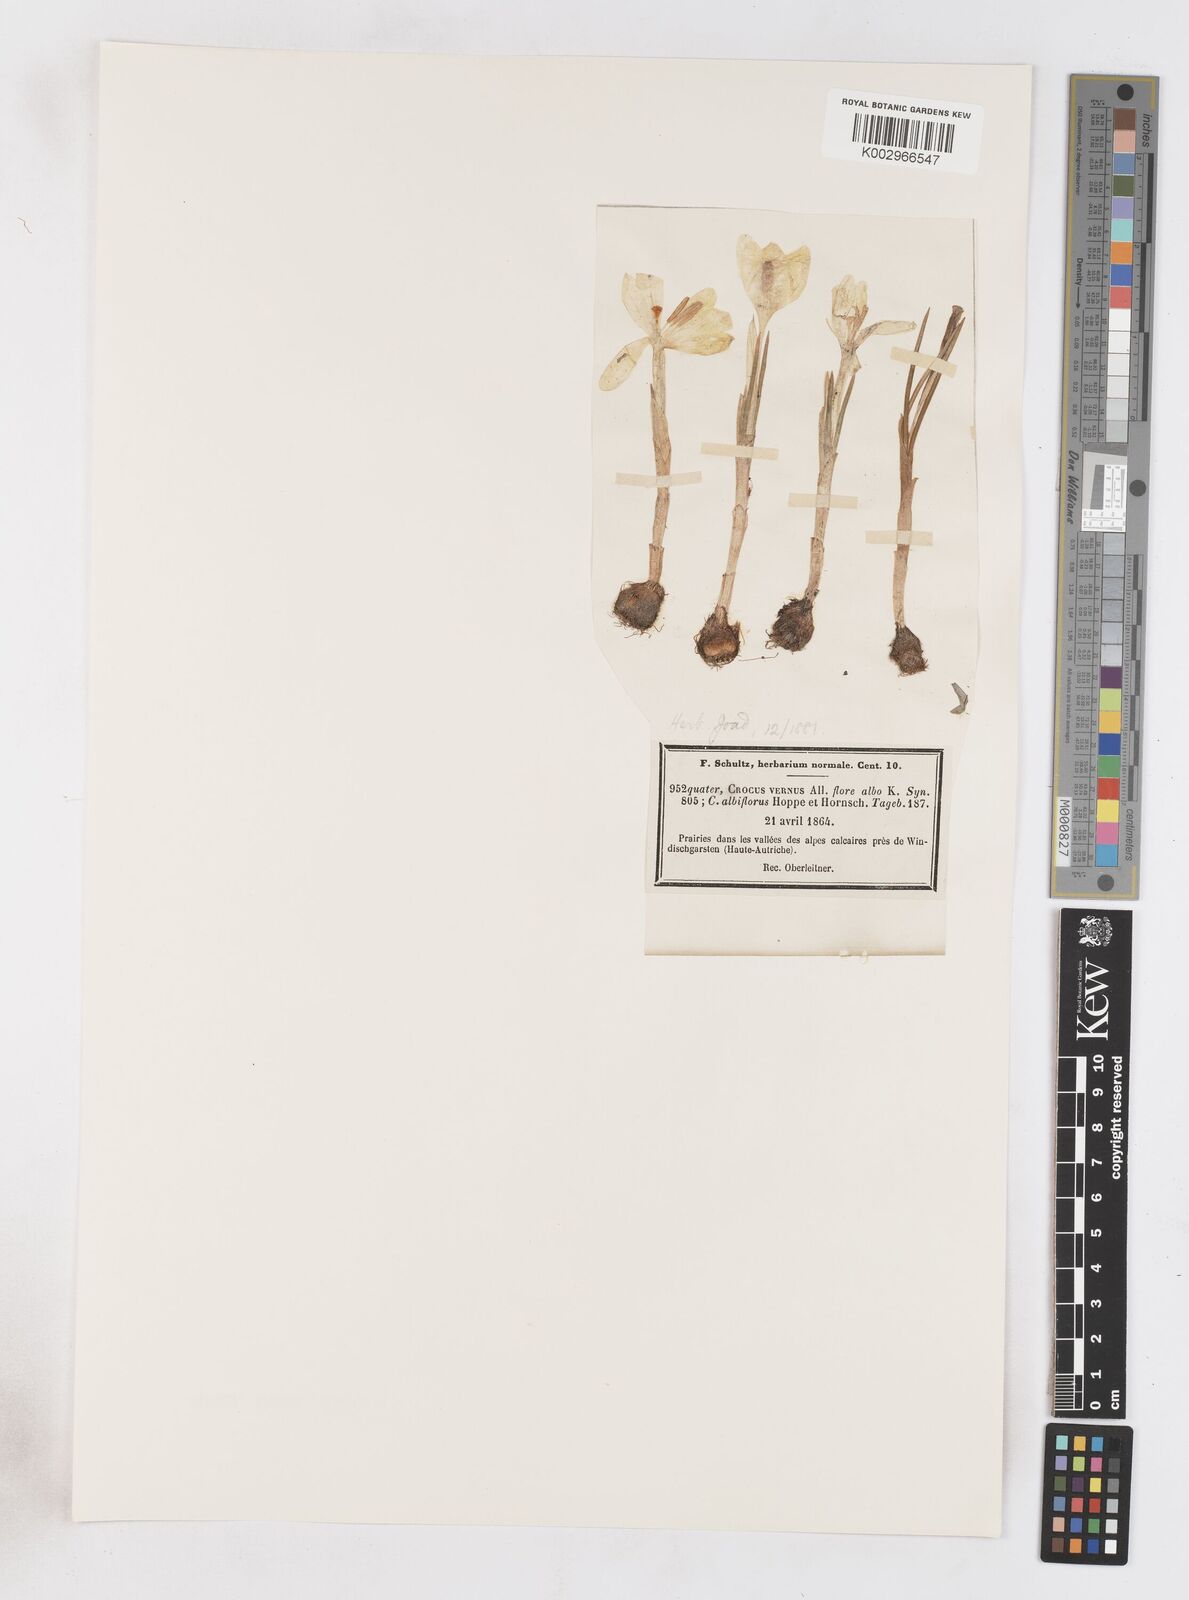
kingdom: Plantae
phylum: Tracheophyta
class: Liliopsida
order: Asparagales
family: Iridaceae
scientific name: Iridaceae
